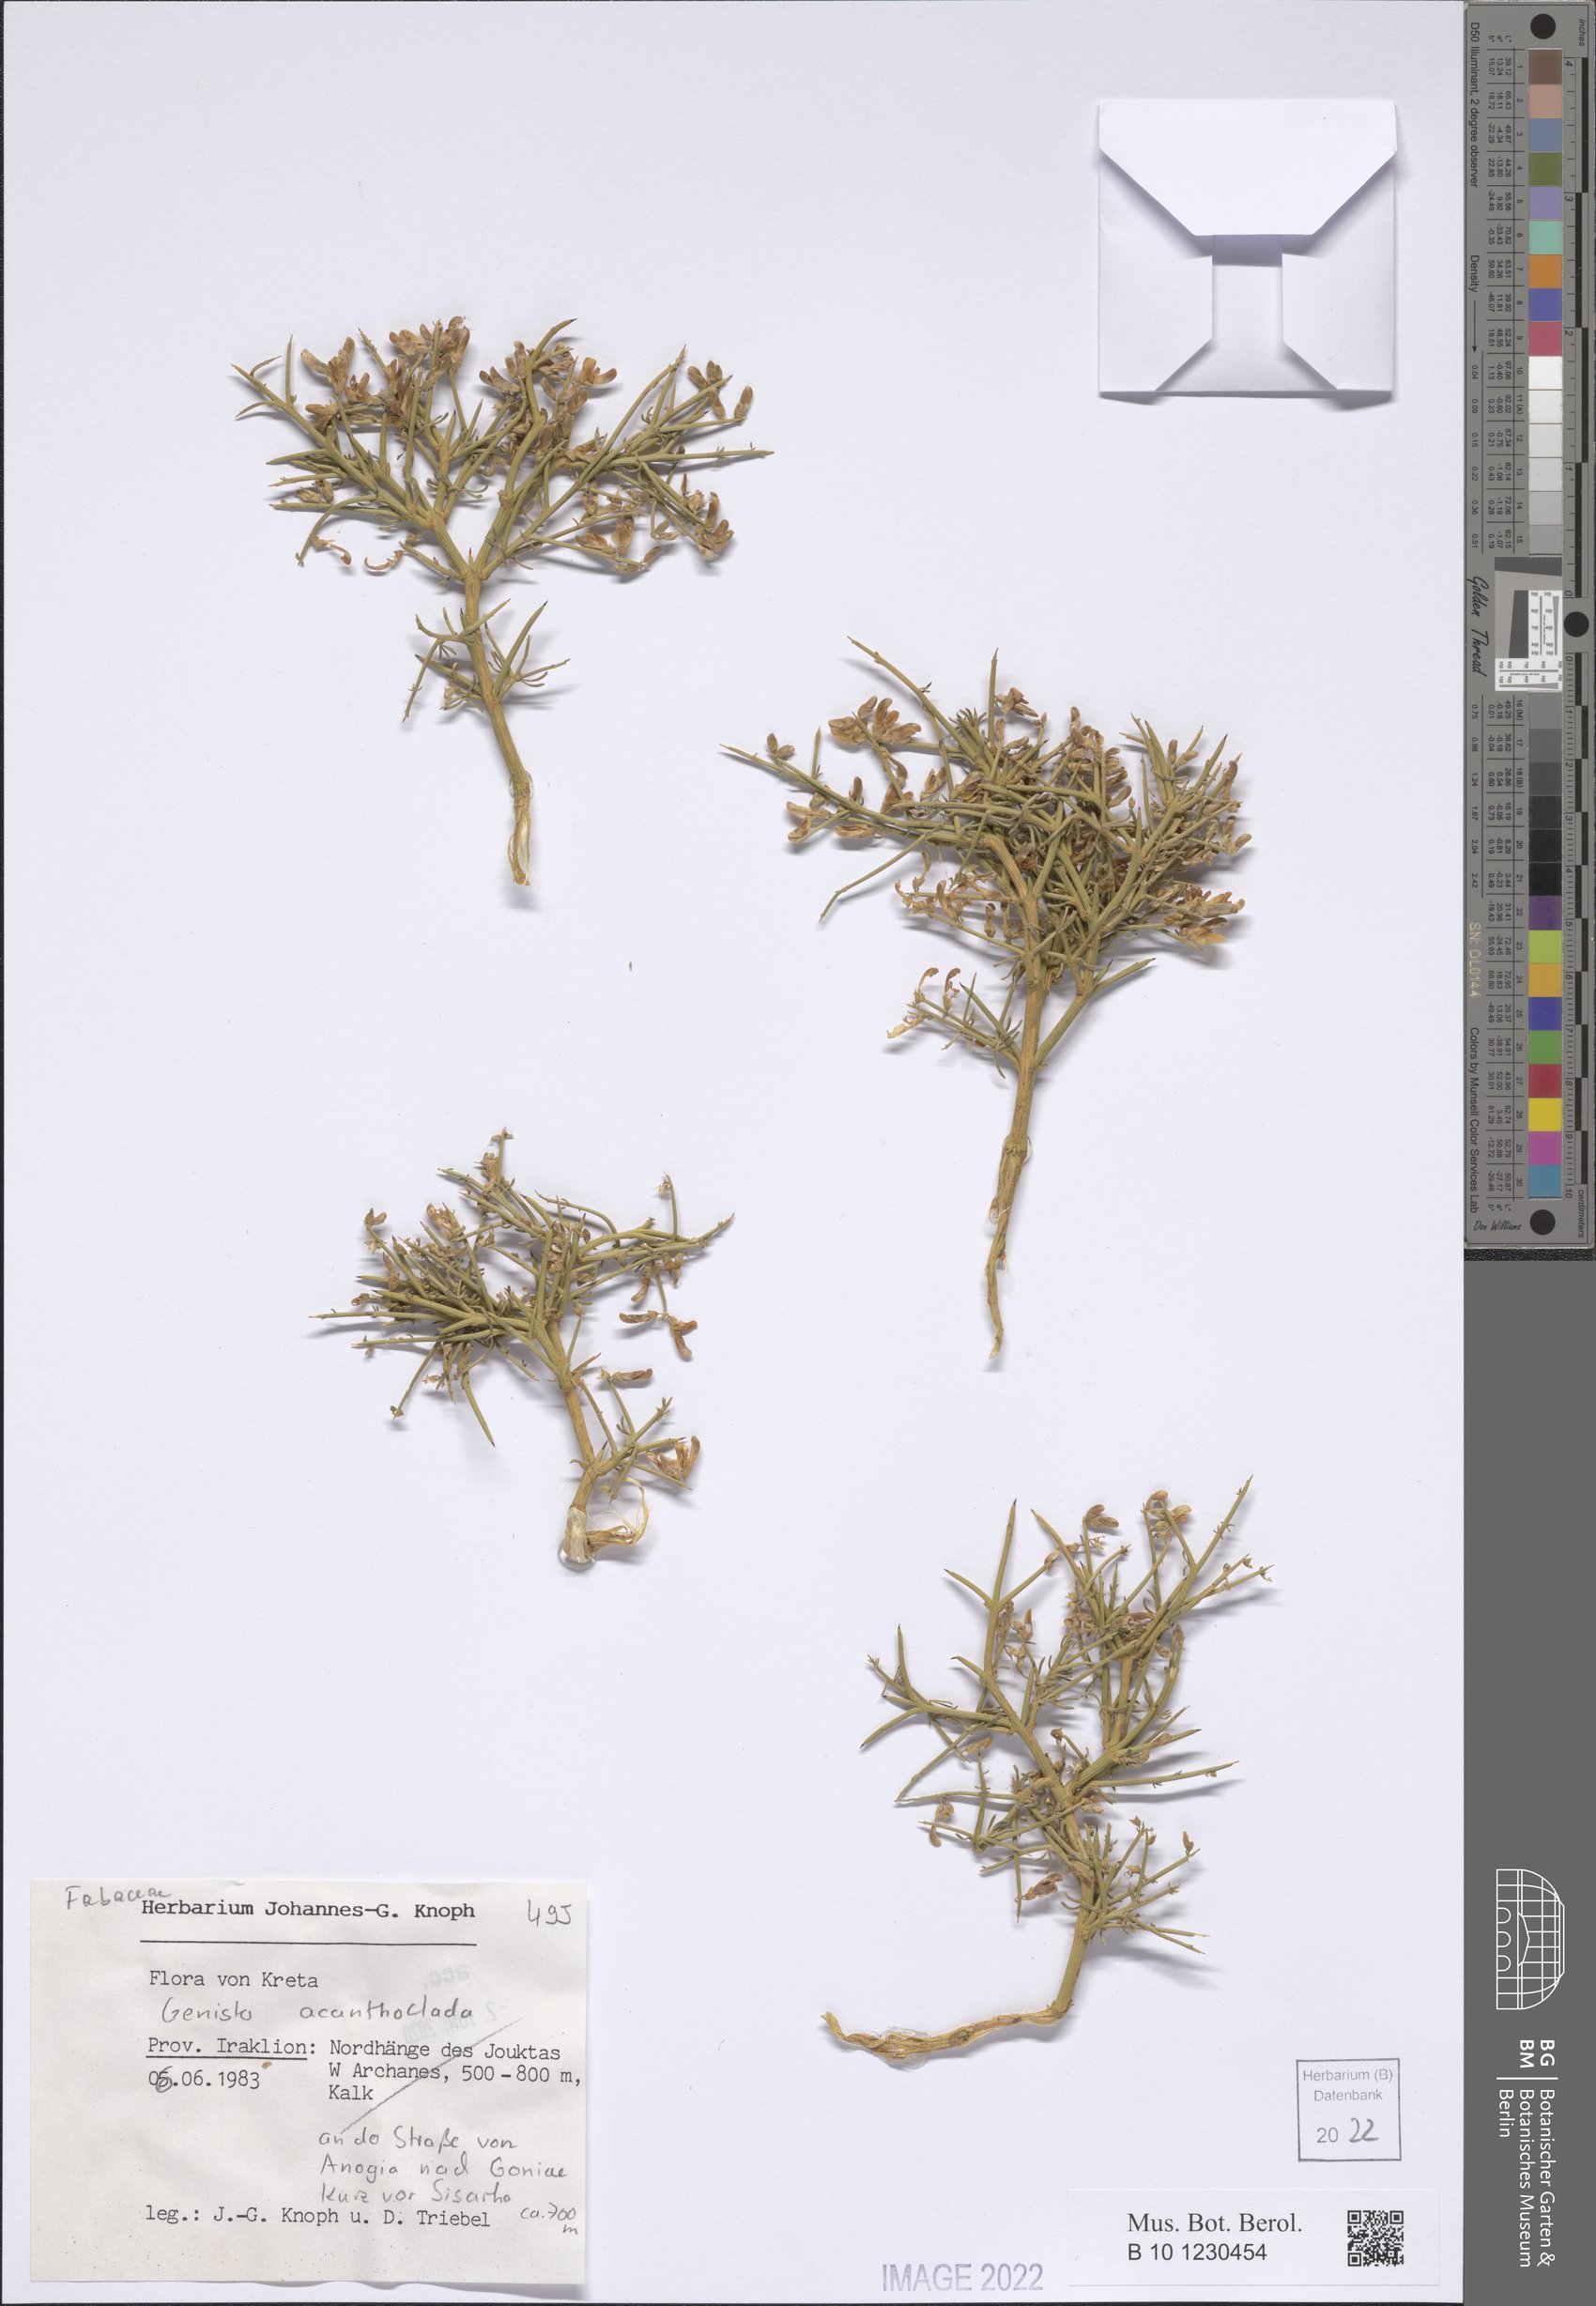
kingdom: Plantae
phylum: Tracheophyta
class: Magnoliopsida
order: Fabales
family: Fabaceae
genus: Genista
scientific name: Genista acanthoclada
